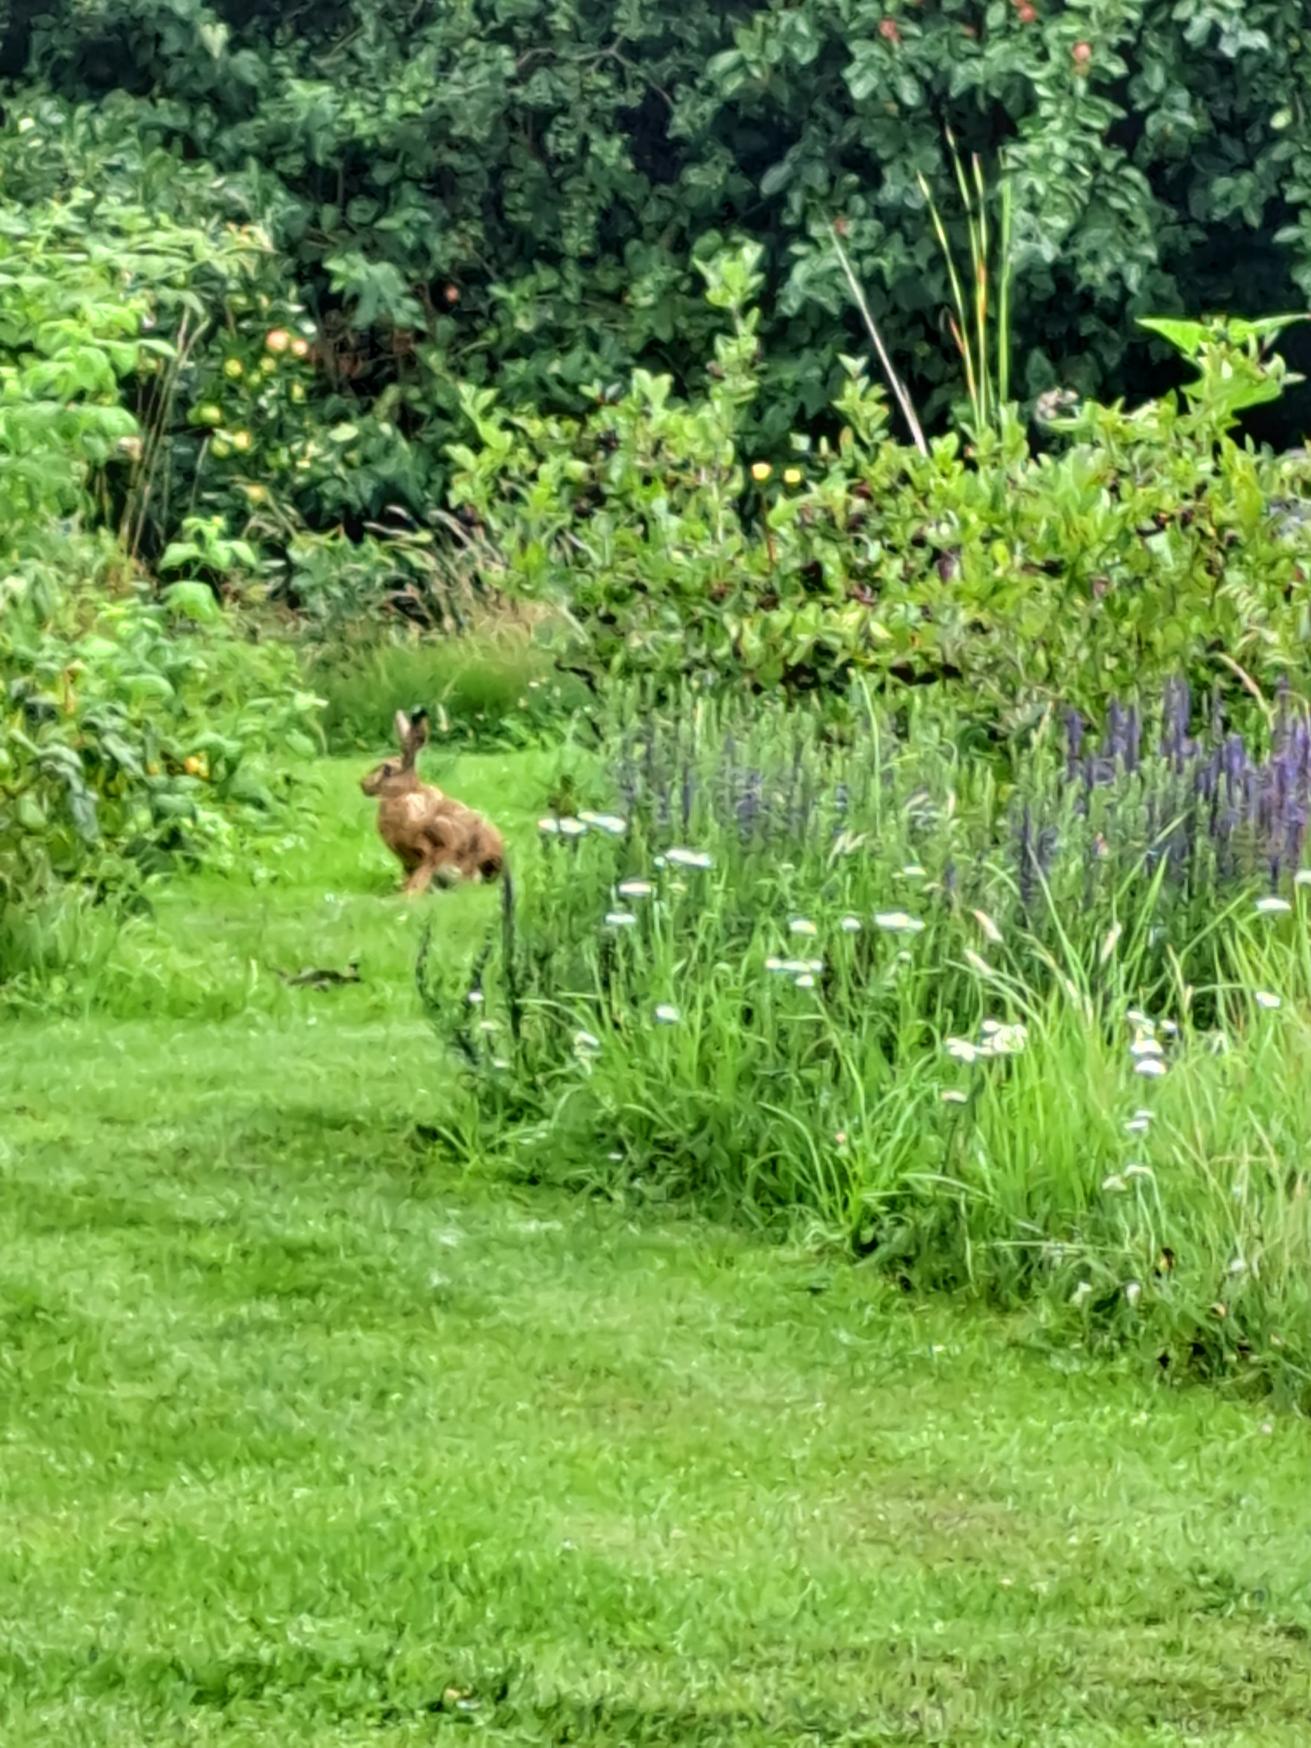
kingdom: Animalia
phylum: Chordata
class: Mammalia
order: Lagomorpha
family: Leporidae
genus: Lepus
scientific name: Lepus europaeus
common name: Hare
